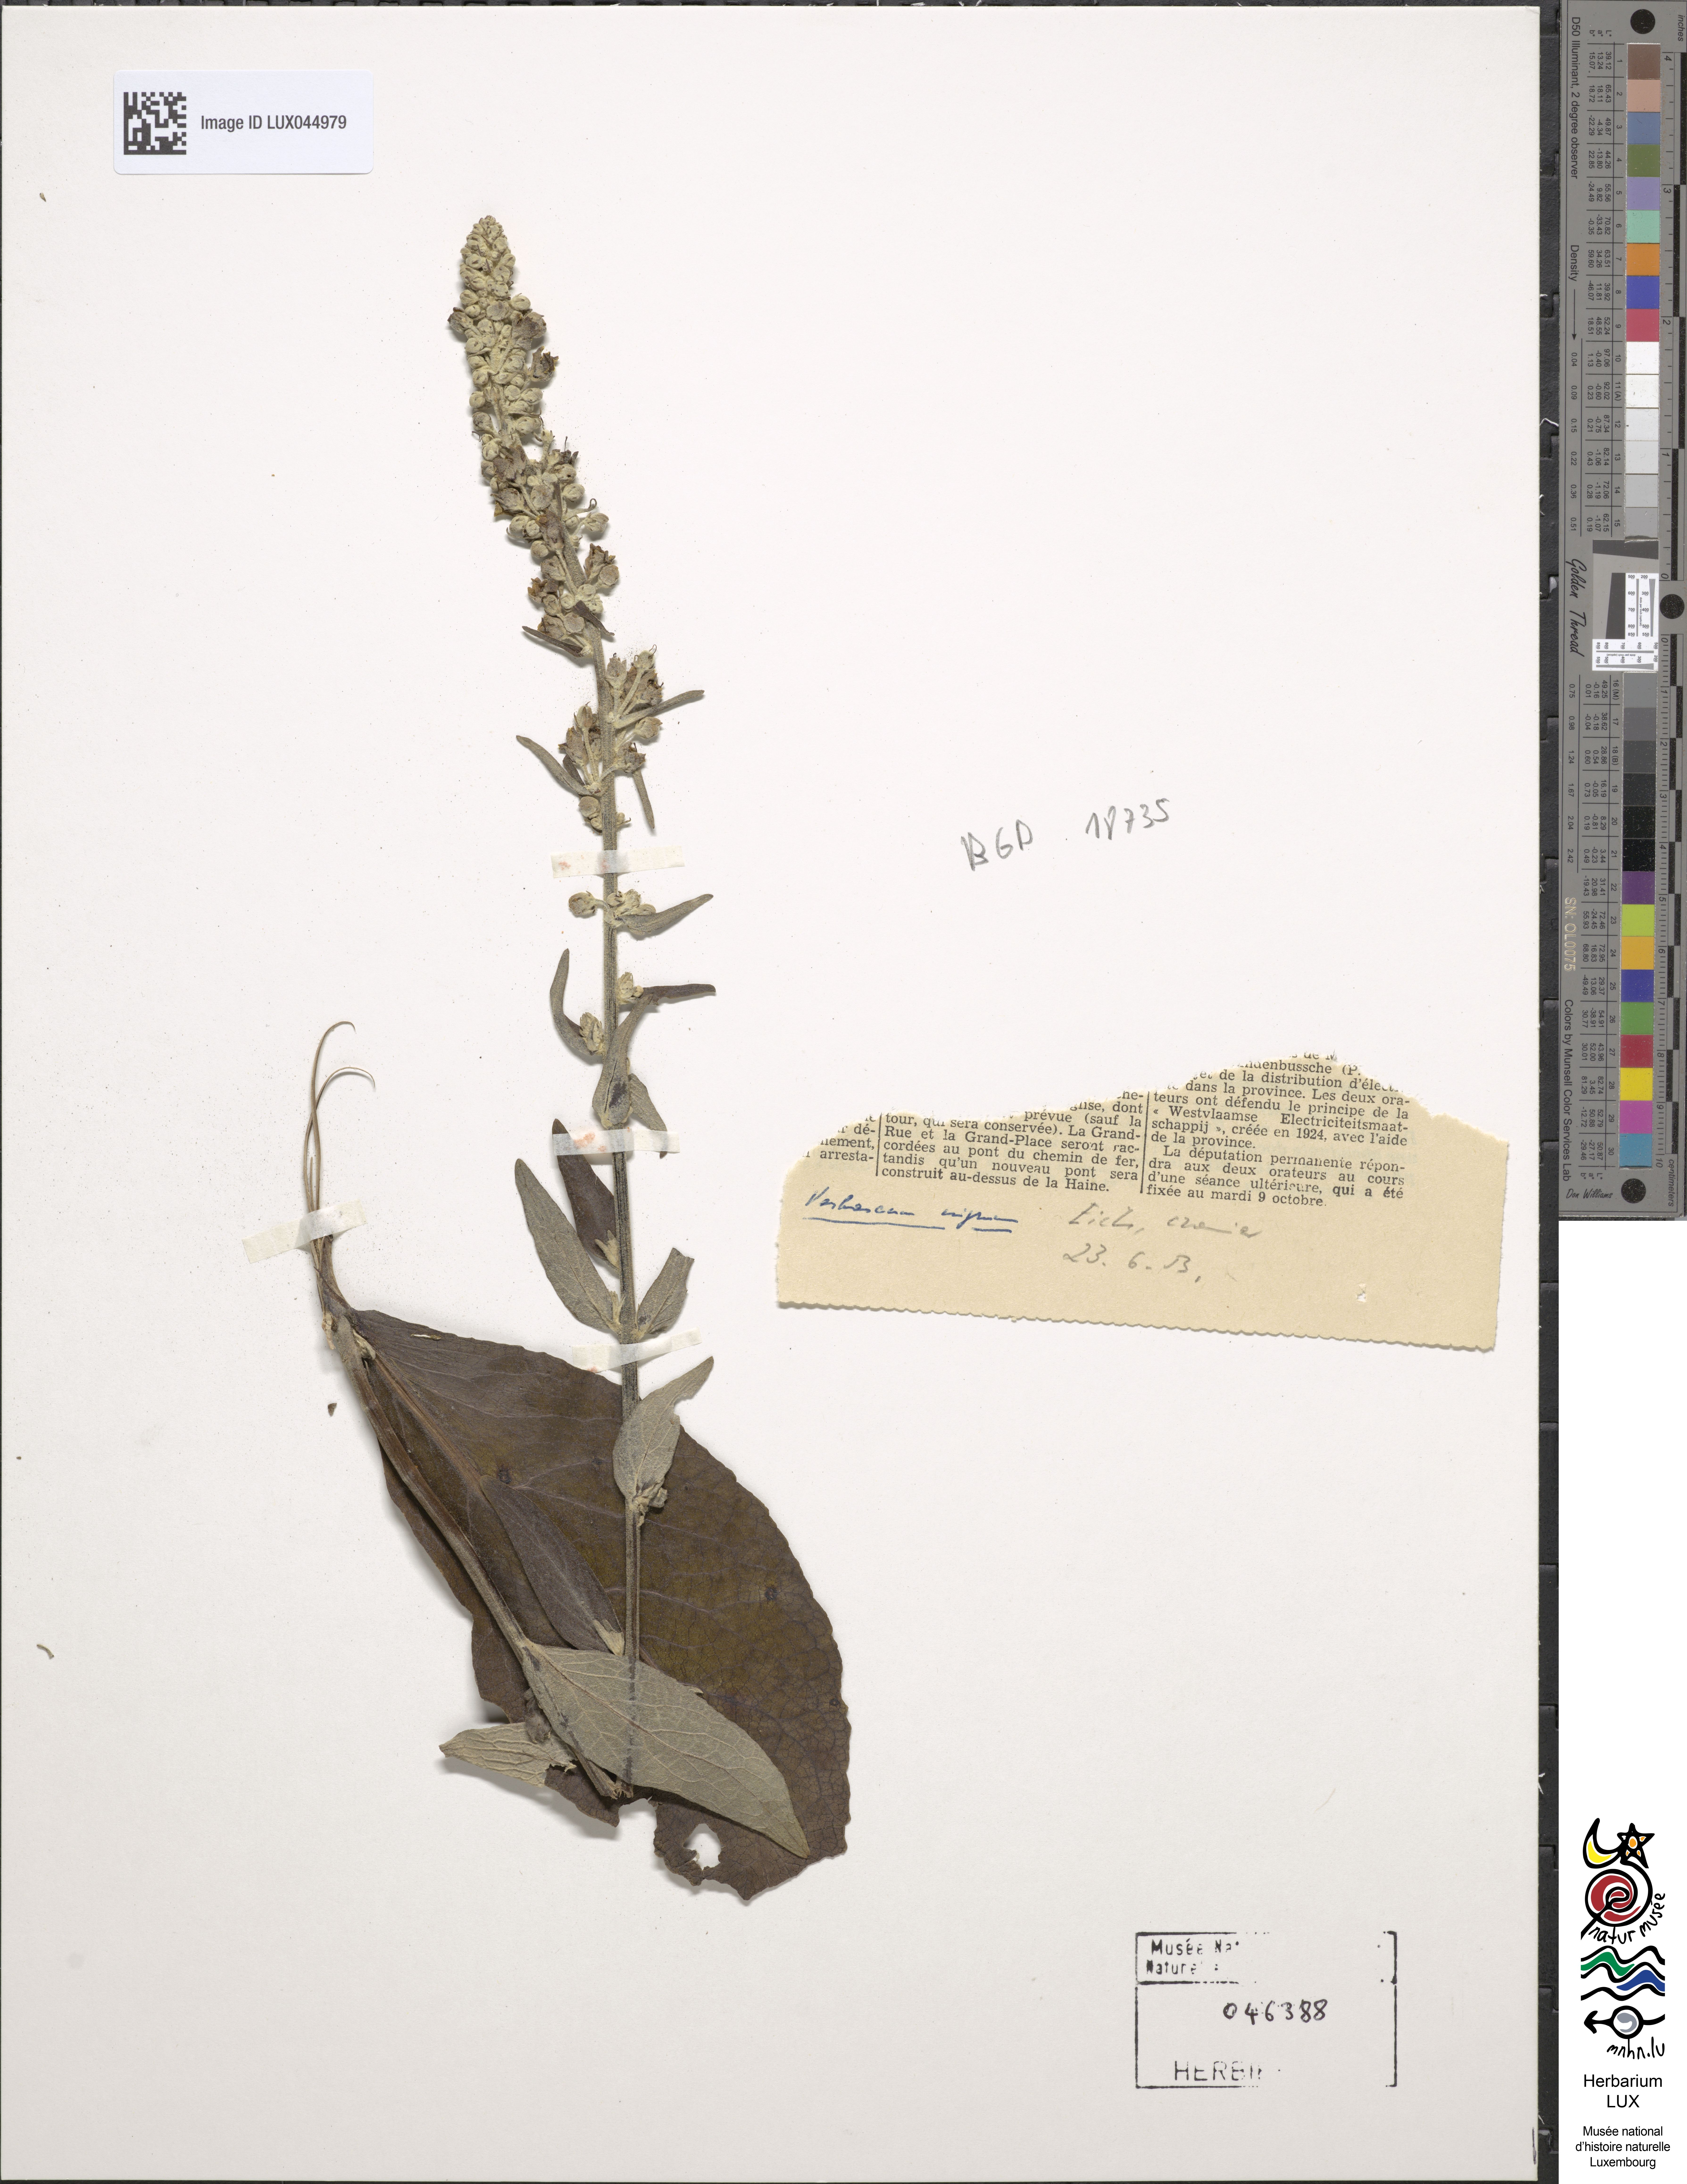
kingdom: Plantae
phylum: Tracheophyta
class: Magnoliopsida
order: Lamiales
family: Scrophulariaceae
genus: Verbascum
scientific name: Verbascum nigrum
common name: Dark mullein
